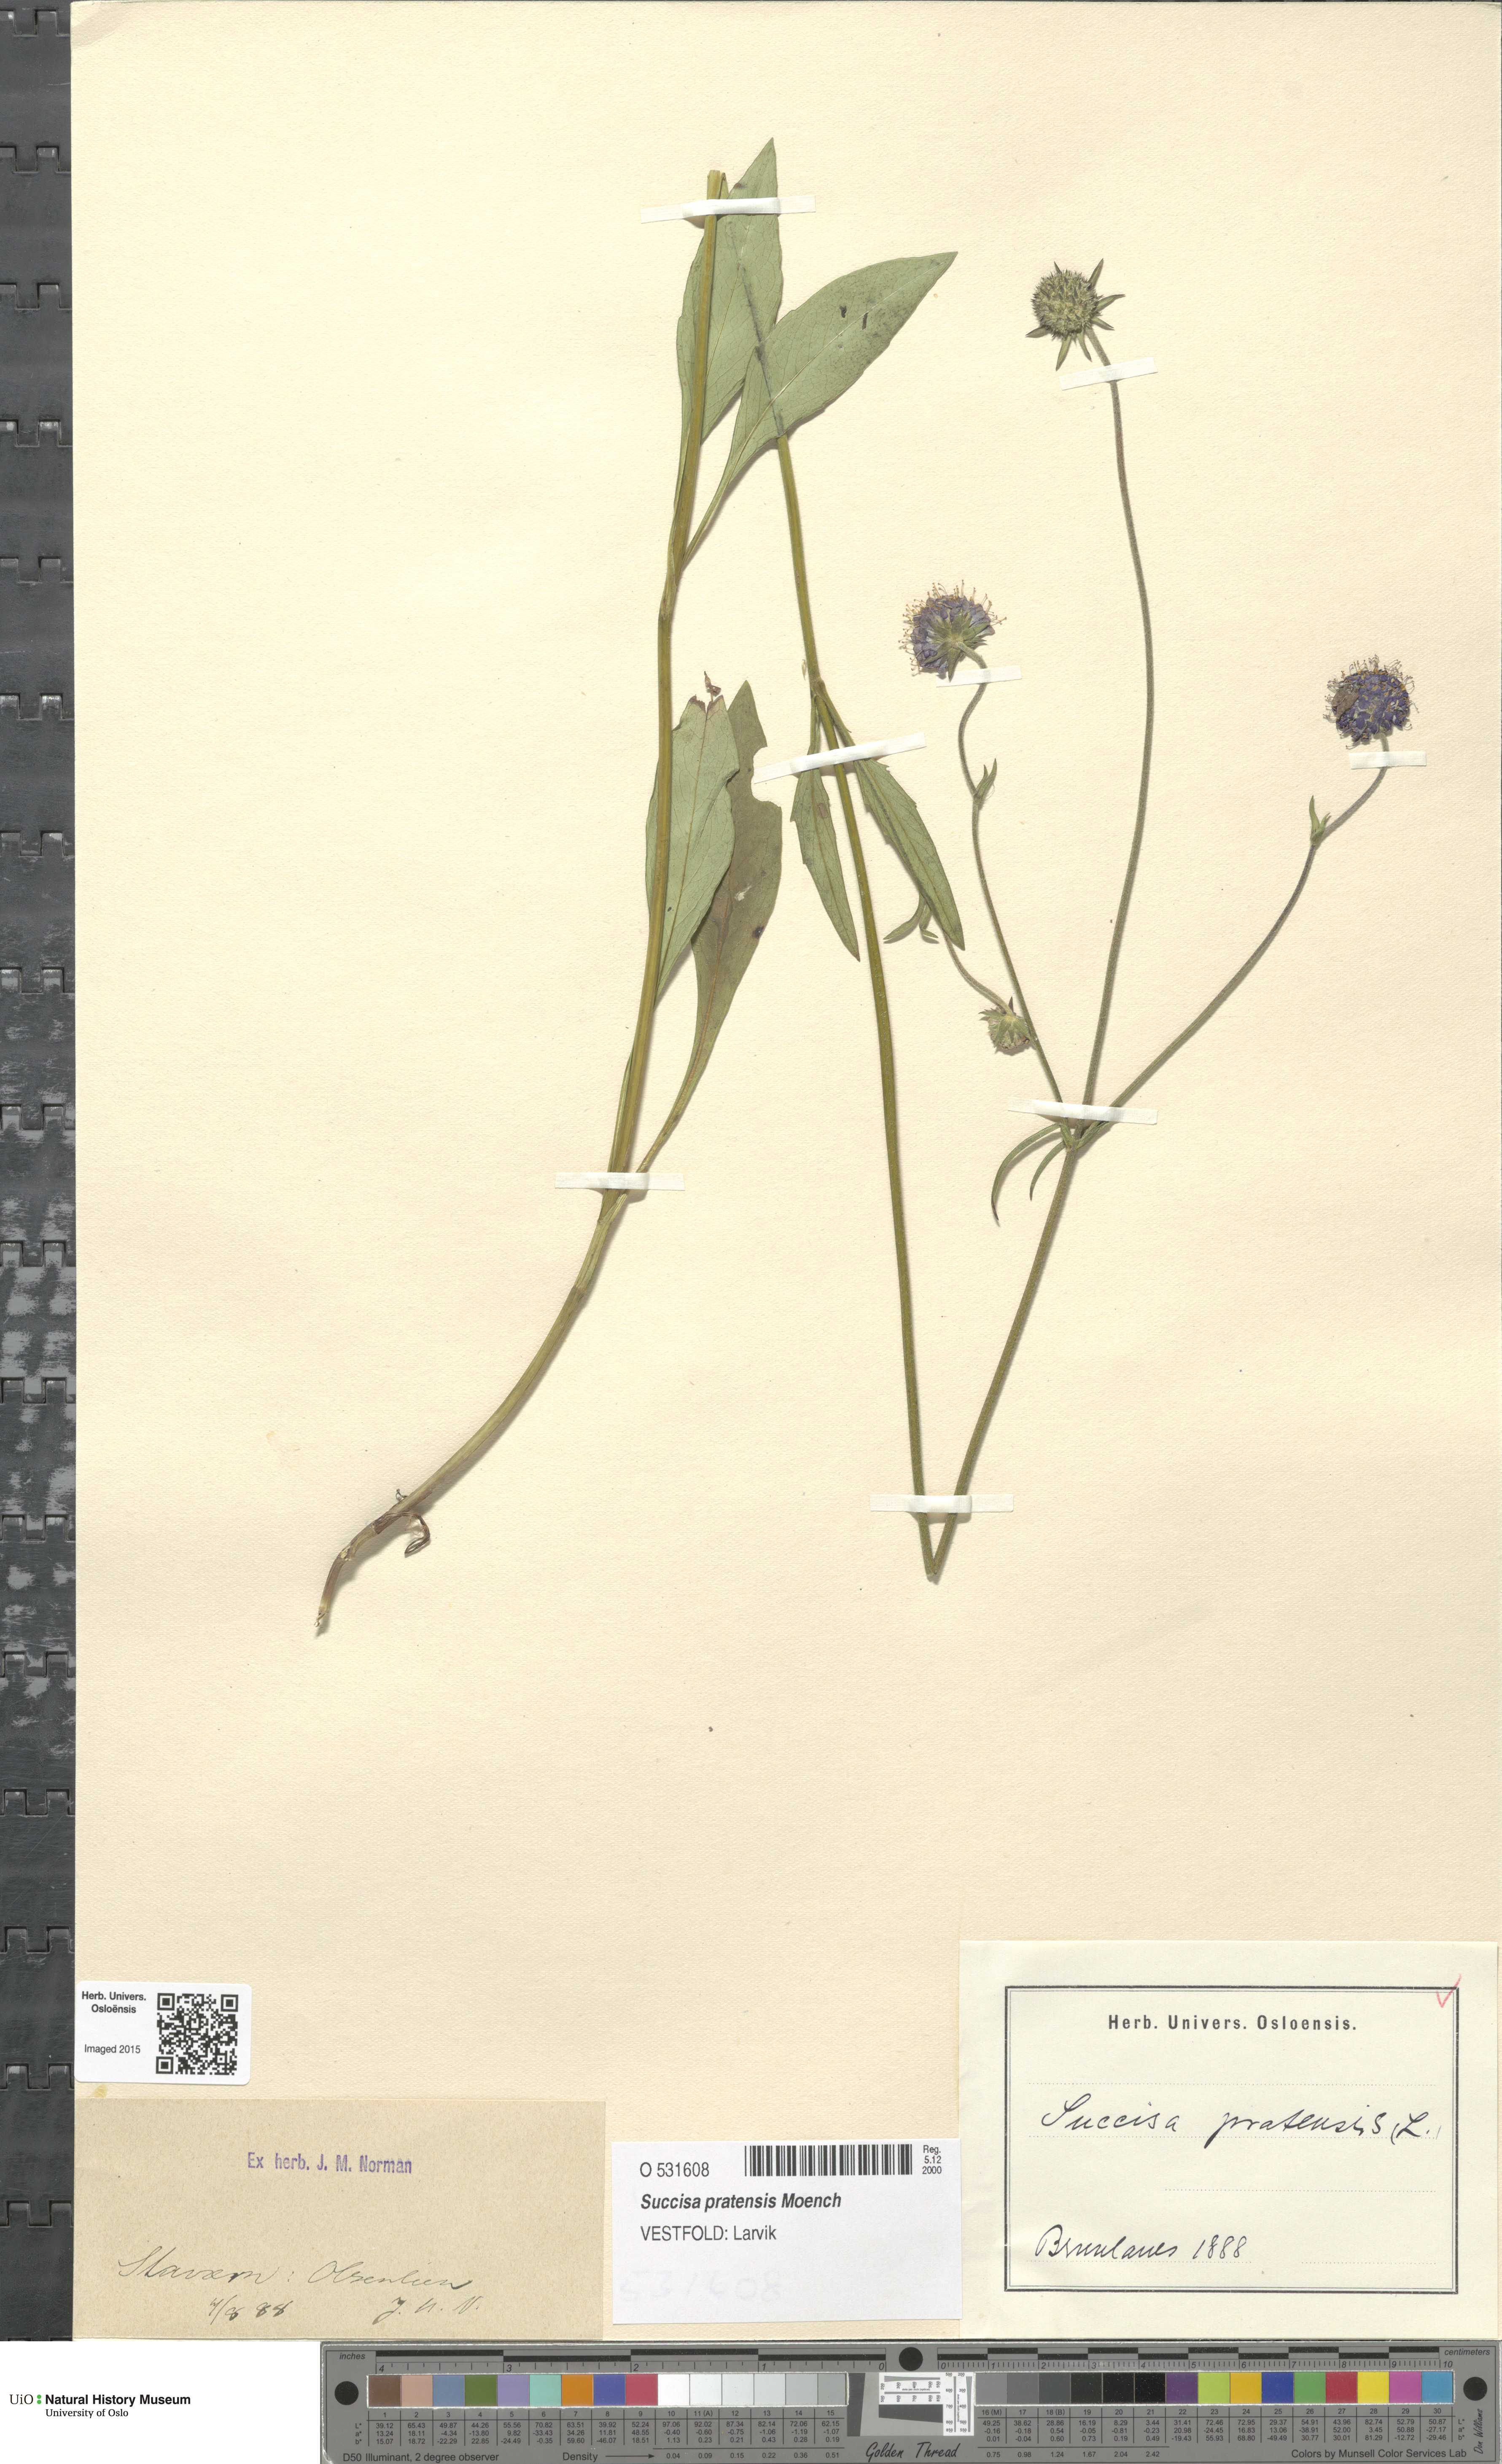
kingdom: Plantae
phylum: Tracheophyta
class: Magnoliopsida
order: Dipsacales
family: Caprifoliaceae
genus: Succisa
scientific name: Succisa pratensis
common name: Devil's-bit
